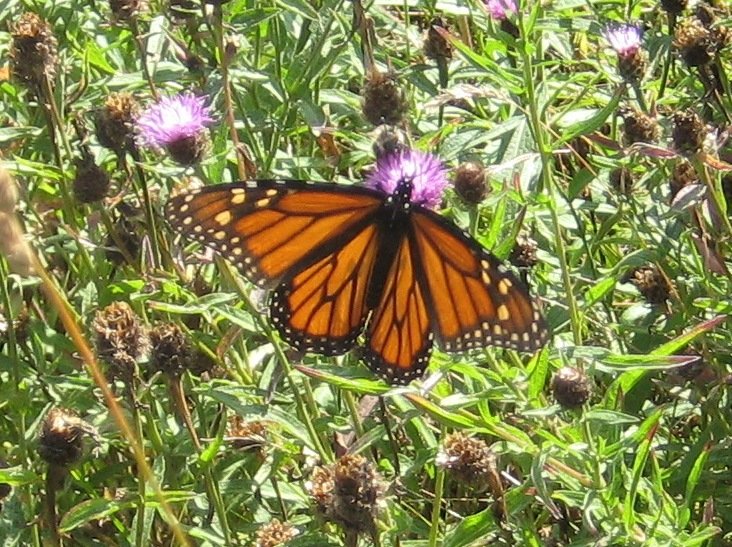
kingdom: Animalia
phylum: Arthropoda
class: Insecta
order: Lepidoptera
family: Nymphalidae
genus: Danaus
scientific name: Danaus plexippus
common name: Monarch
